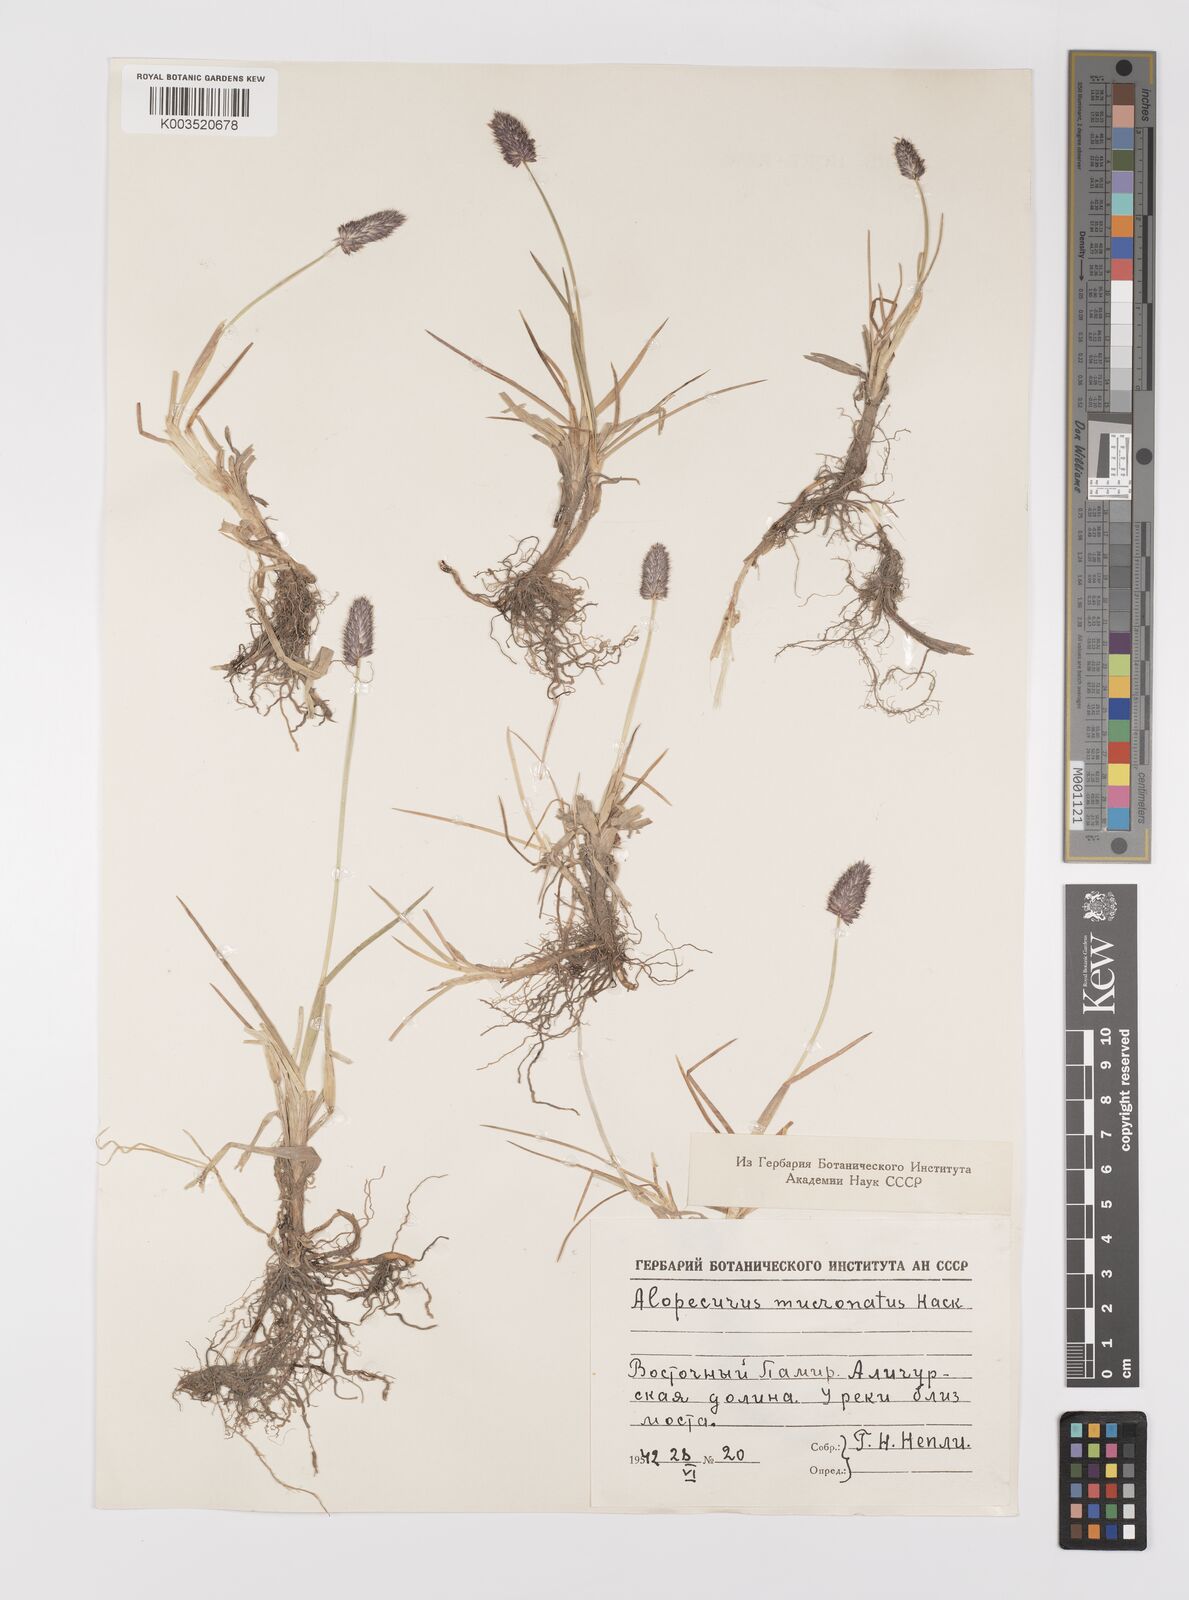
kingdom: Plantae
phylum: Tracheophyta
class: Liliopsida
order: Poales
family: Poaceae
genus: Alopecurus
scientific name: Alopecurus mucronatus
